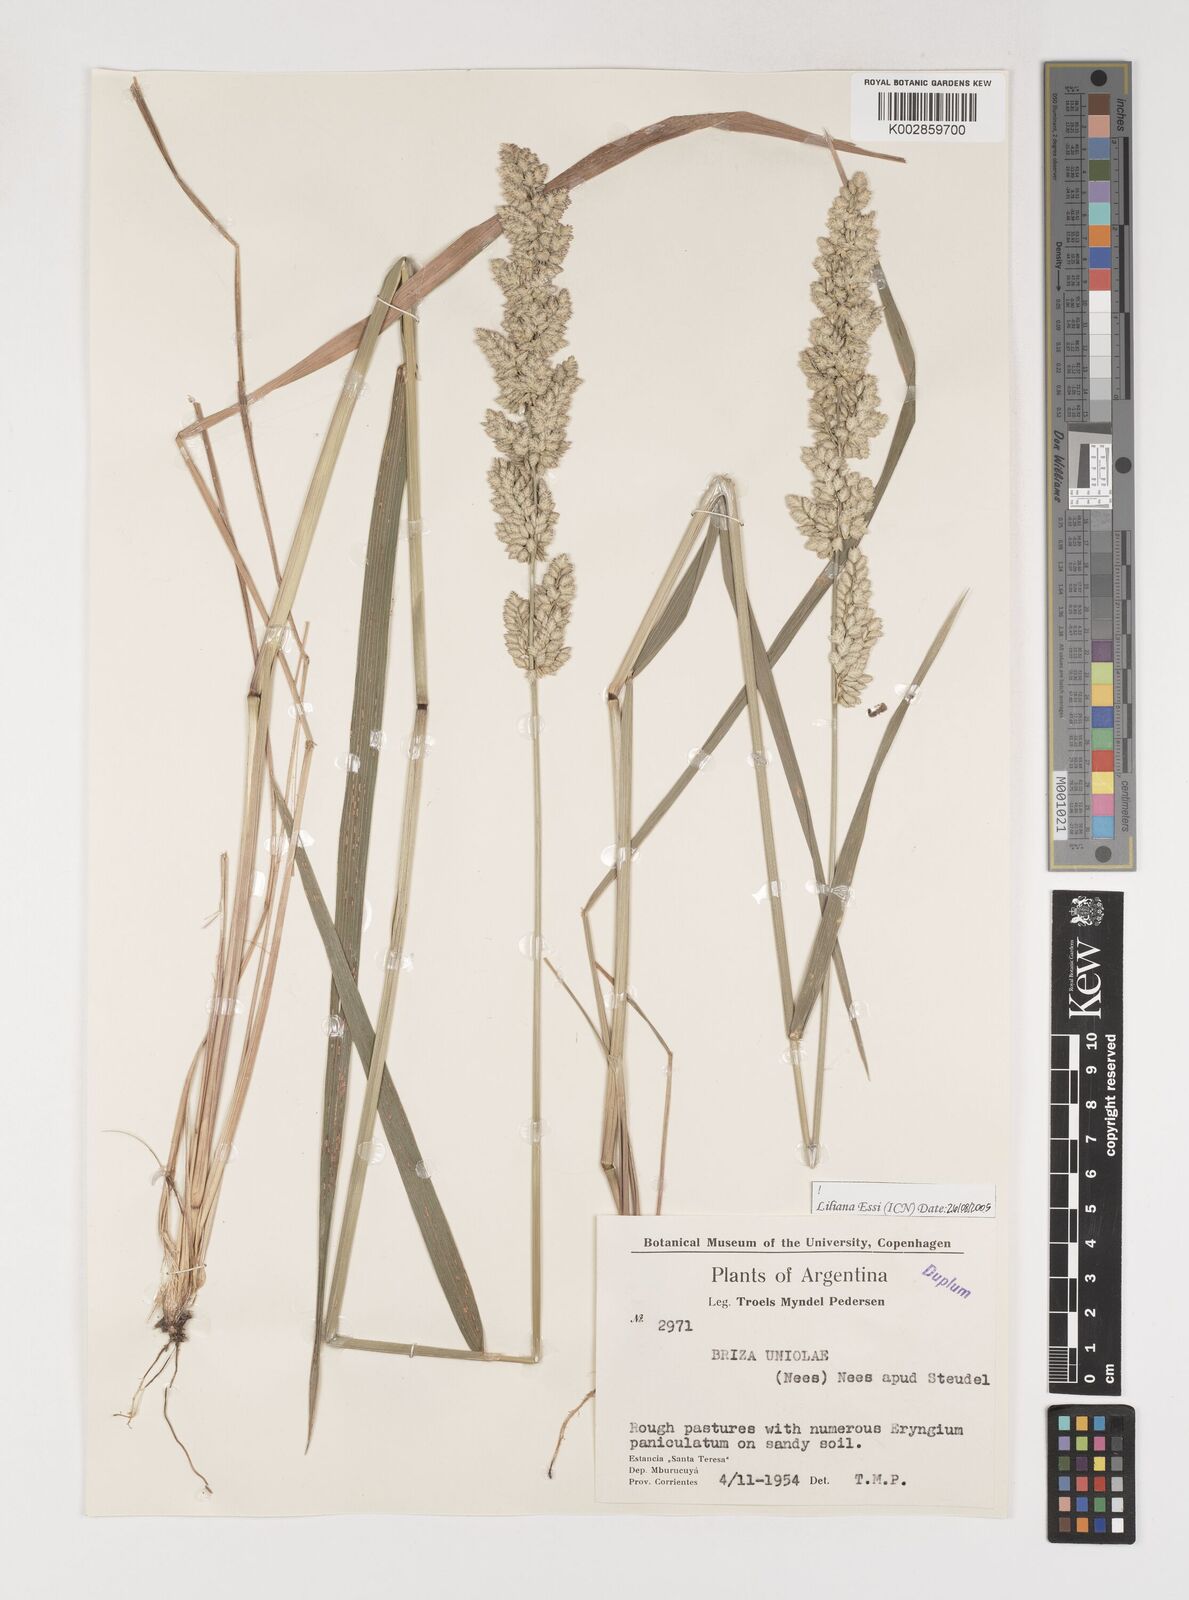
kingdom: Plantae
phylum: Tracheophyta
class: Liliopsida
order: Poales
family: Poaceae
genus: Poidium
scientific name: Poidium uniolae
